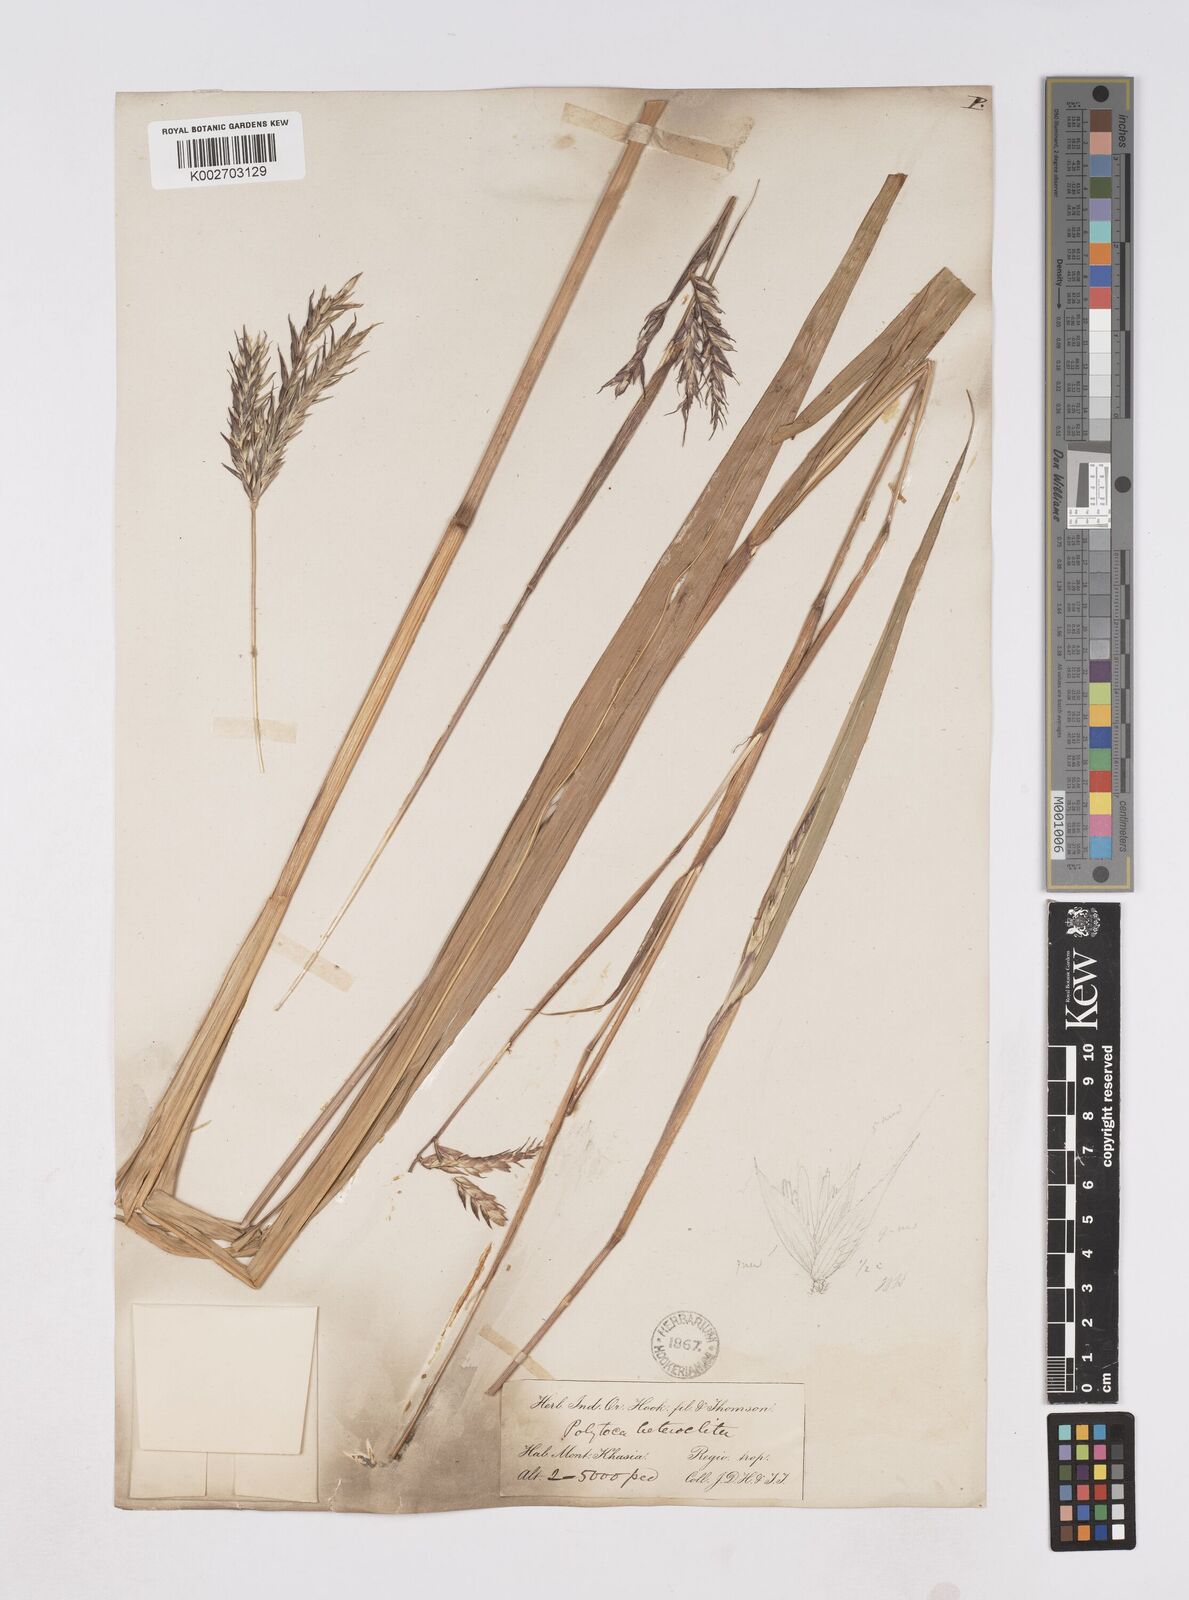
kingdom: Plantae
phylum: Tracheophyta
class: Liliopsida
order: Poales
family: Poaceae
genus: Polytoca
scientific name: Polytoca digitata
